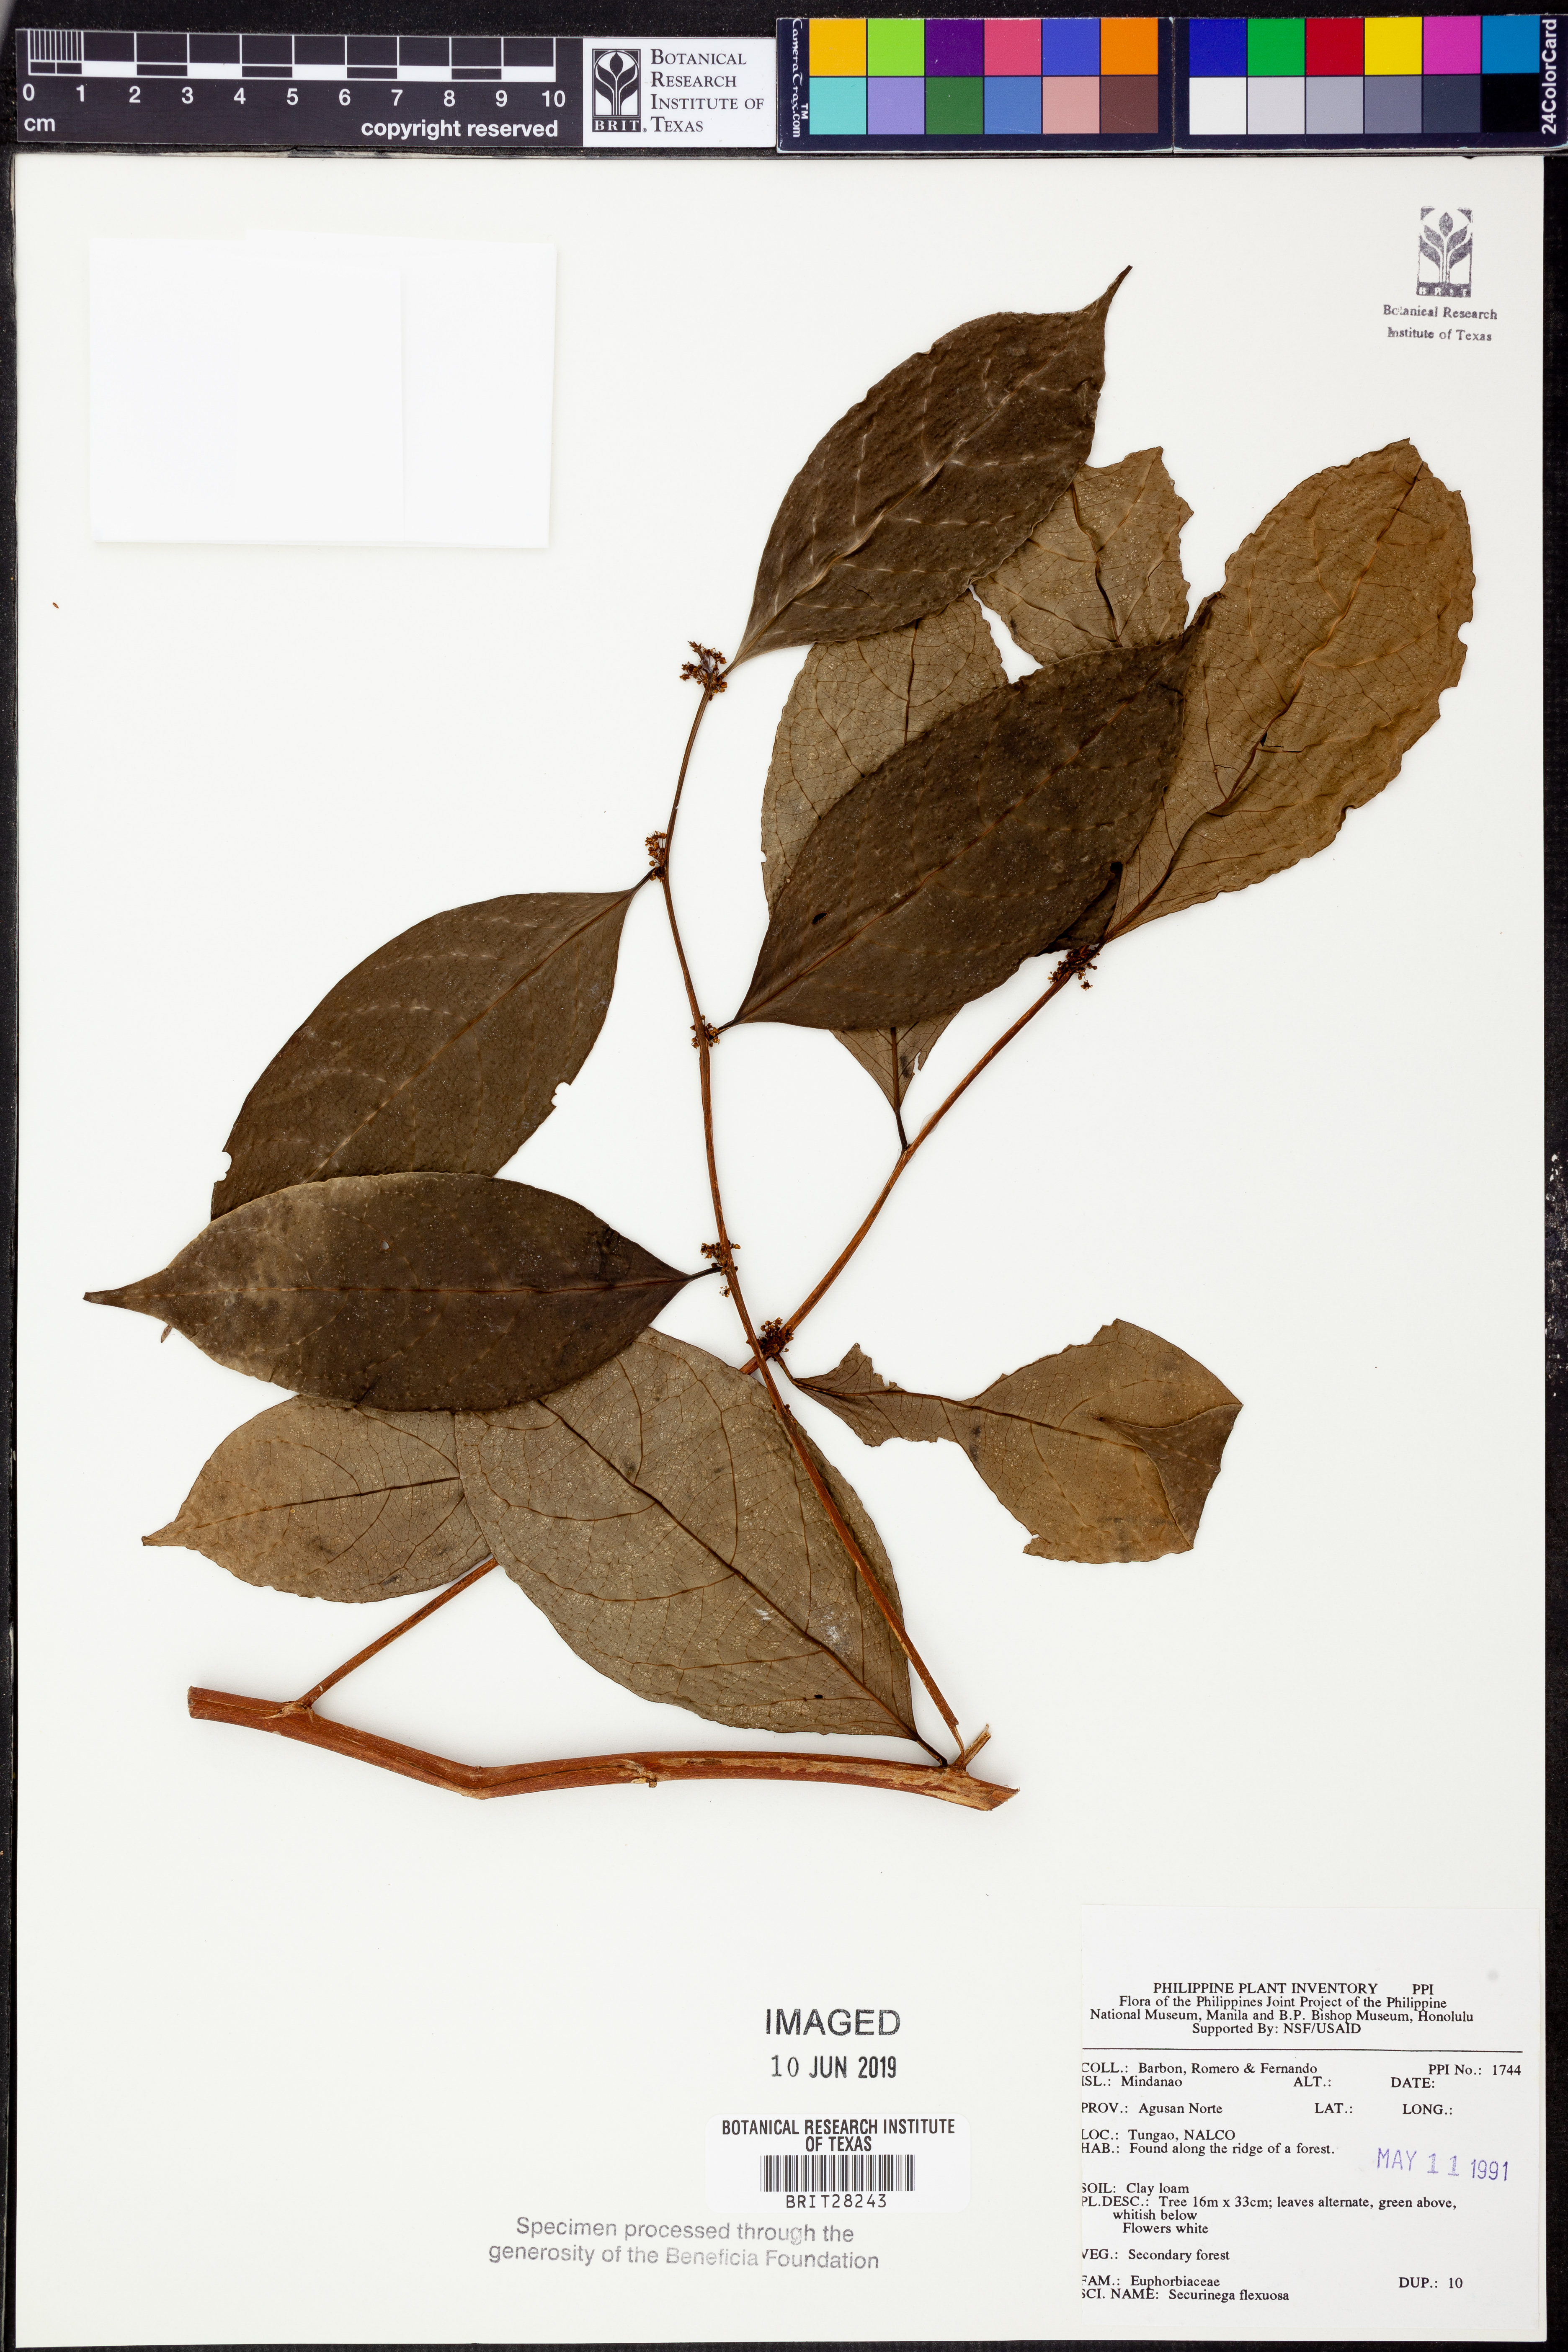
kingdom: Plantae
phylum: Tracheophyta
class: Magnoliopsida
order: Malpighiales
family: Phyllanthaceae
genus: Flueggea
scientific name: Flueggea flexuosa
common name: Poumuli
